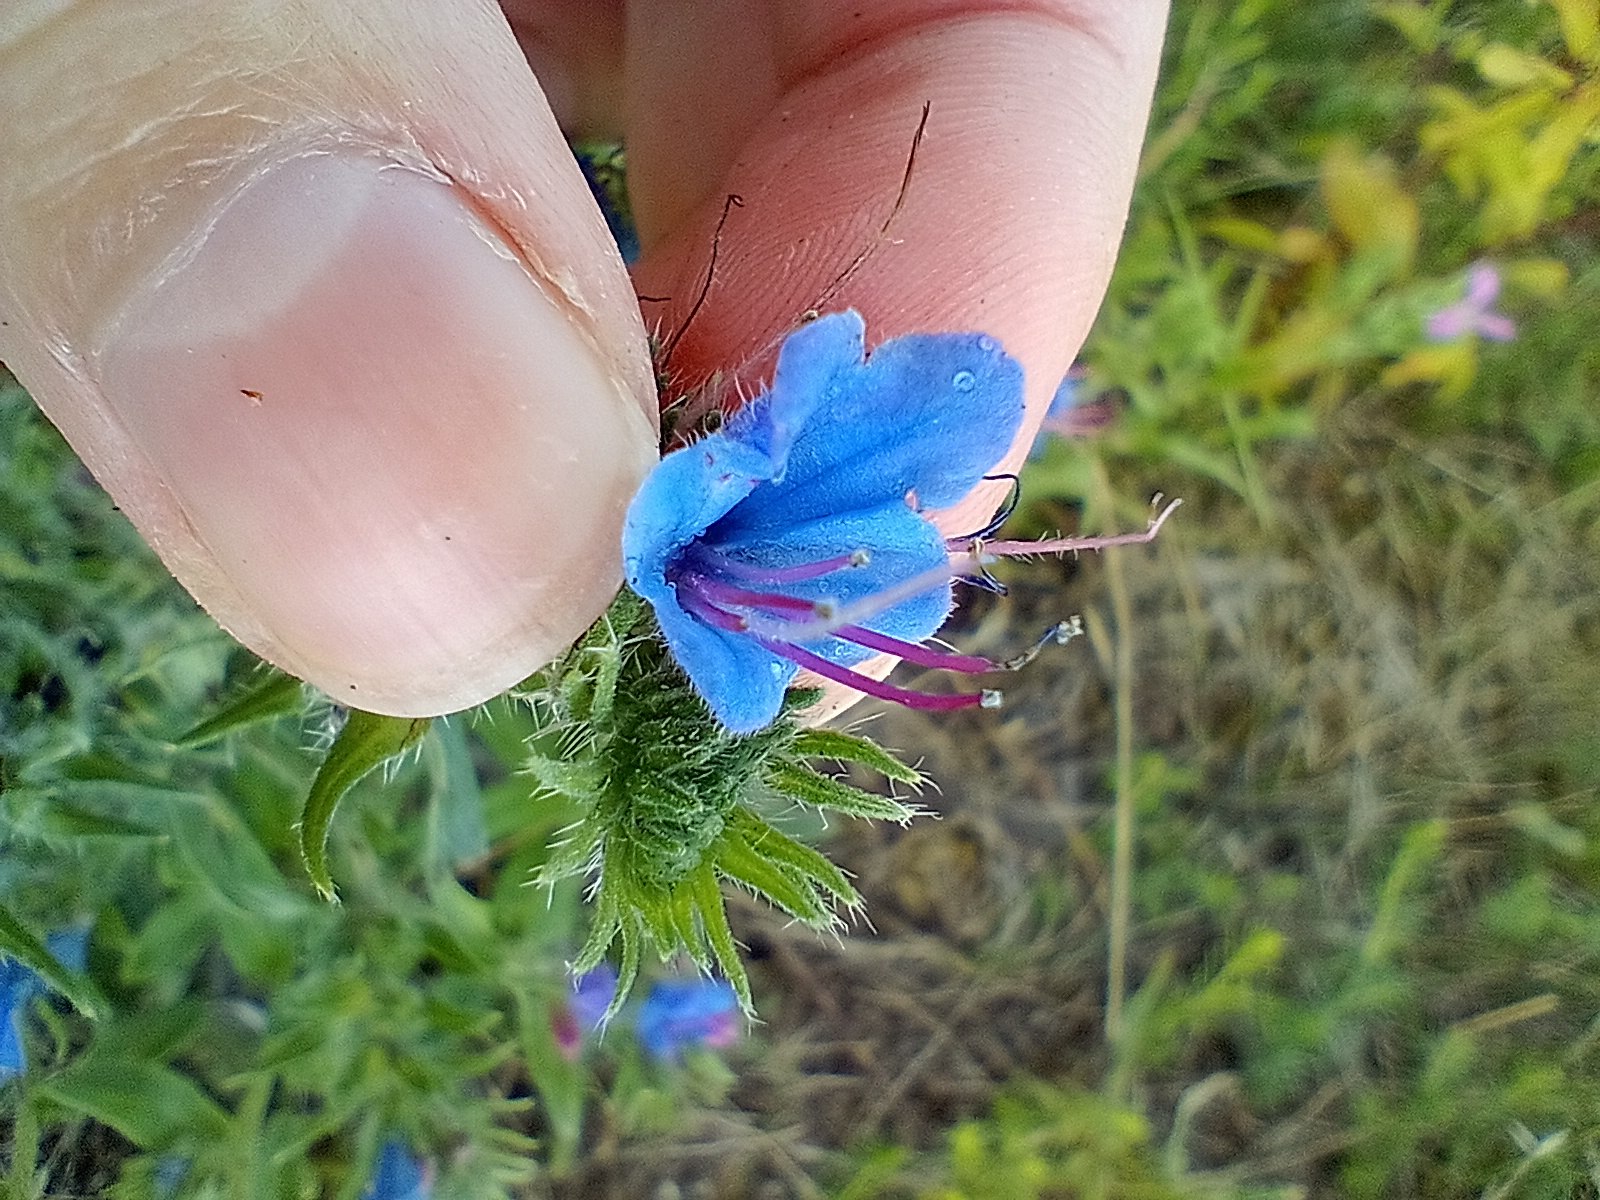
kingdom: Plantae
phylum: Tracheophyta
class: Magnoliopsida
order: Boraginales
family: Boraginaceae
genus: Echium
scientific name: Echium vulgare
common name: Slangehoved
